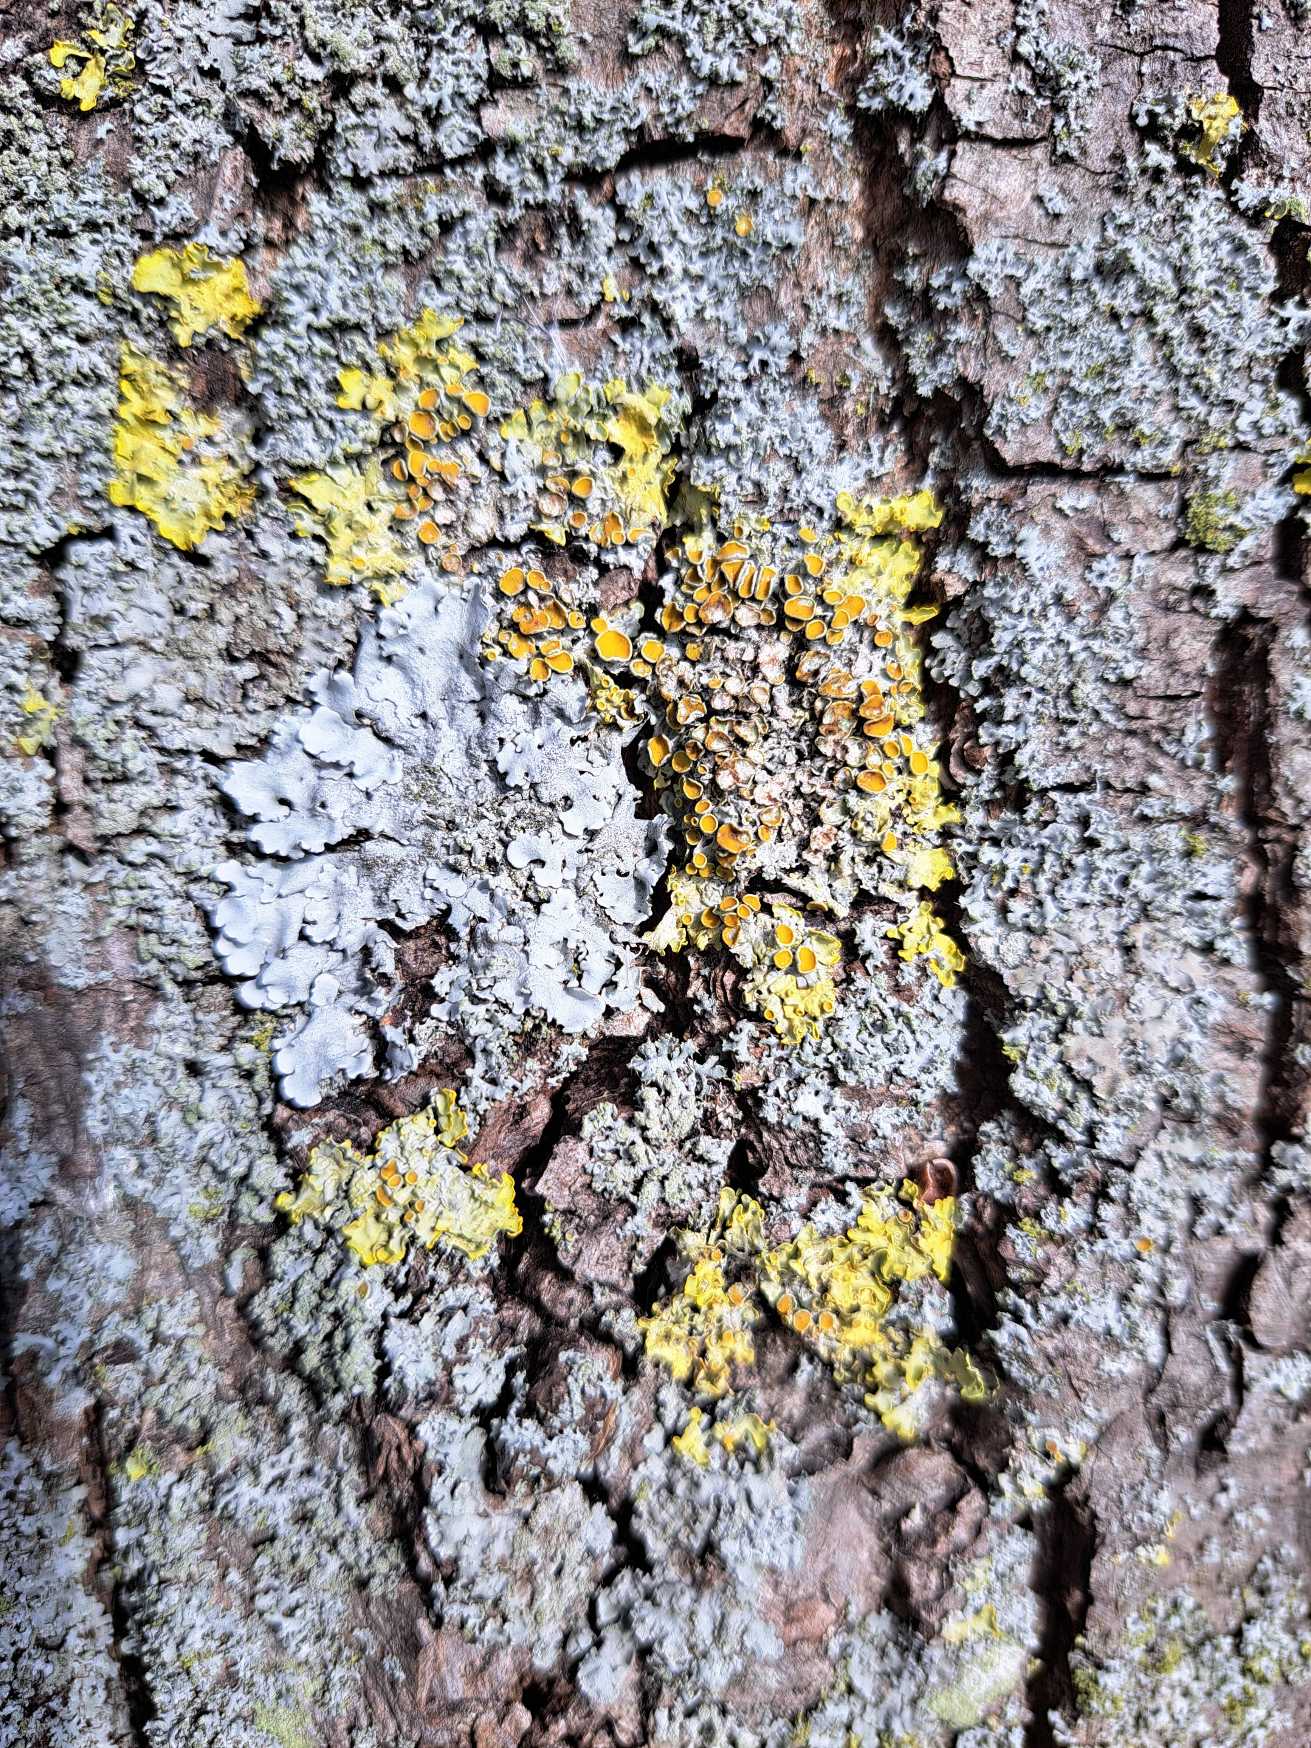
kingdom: Fungi
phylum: Ascomycota
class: Lecanoromycetes
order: Teloschistales
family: Teloschistaceae
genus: Xanthoria
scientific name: Xanthoria parietina
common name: Almindelig væggelav
